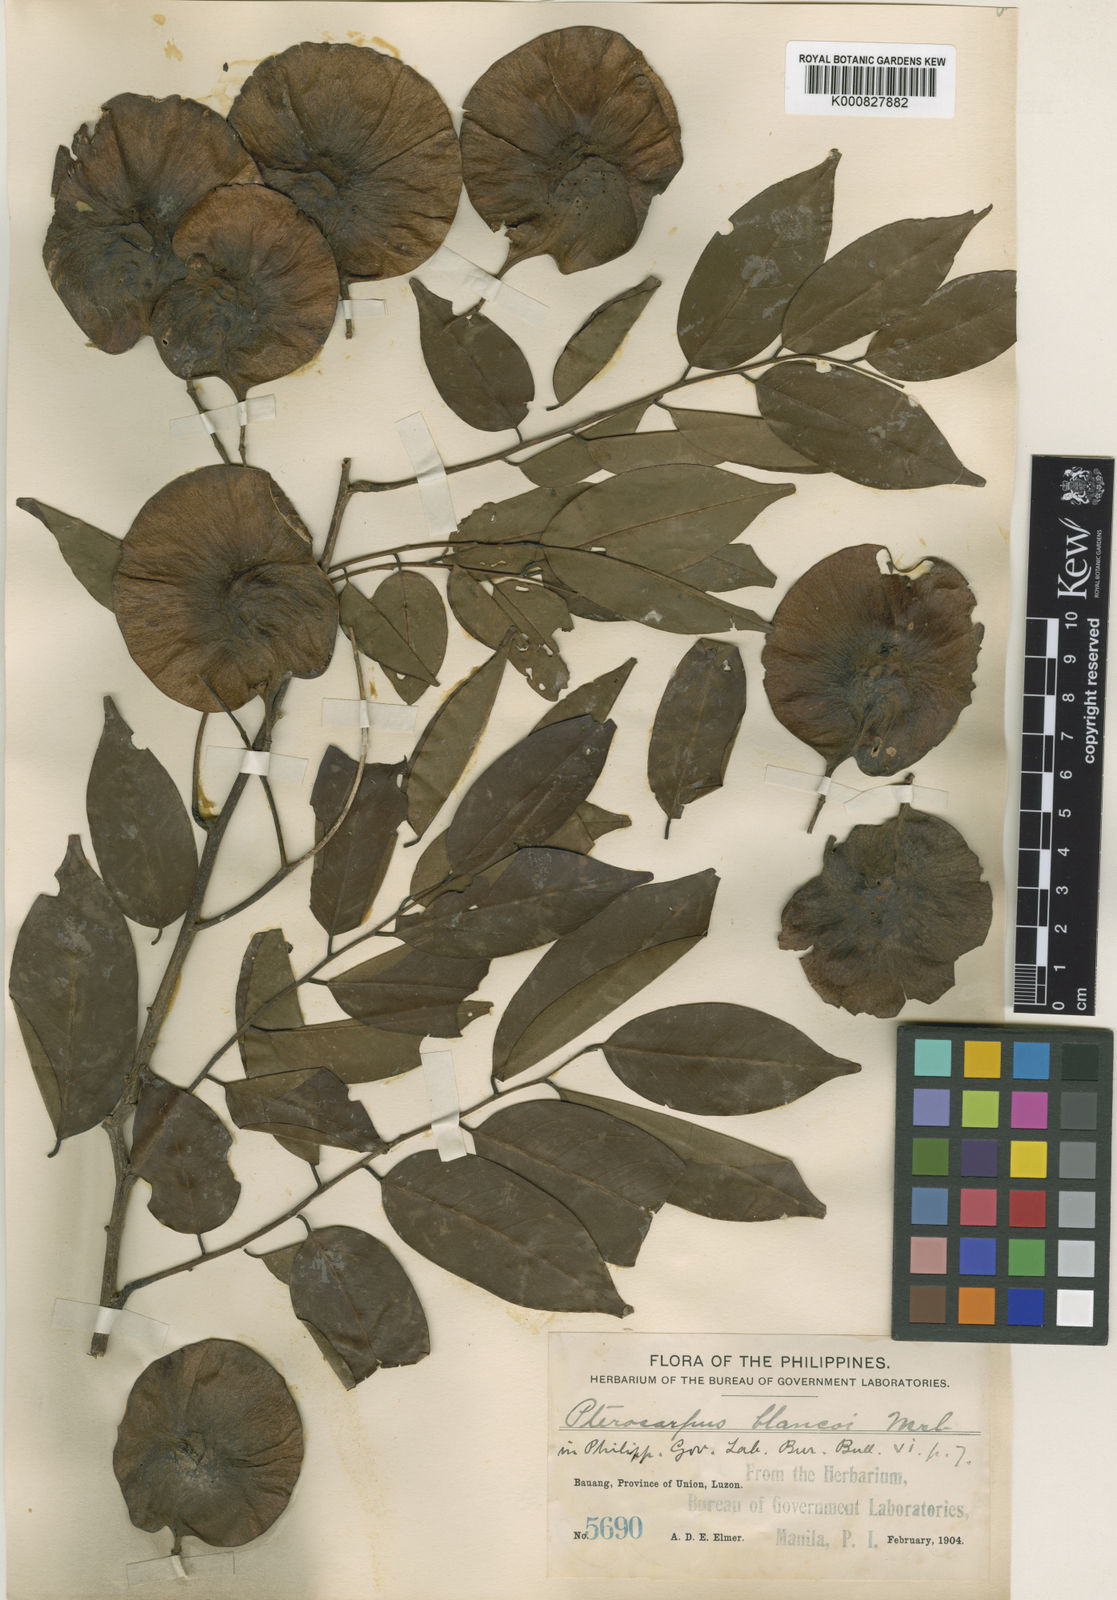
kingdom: Plantae
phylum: Tracheophyta
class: Magnoliopsida
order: Fabales
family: Fabaceae
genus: Pterocarpus
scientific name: Pterocarpus indicus
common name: Burmese rosewood
